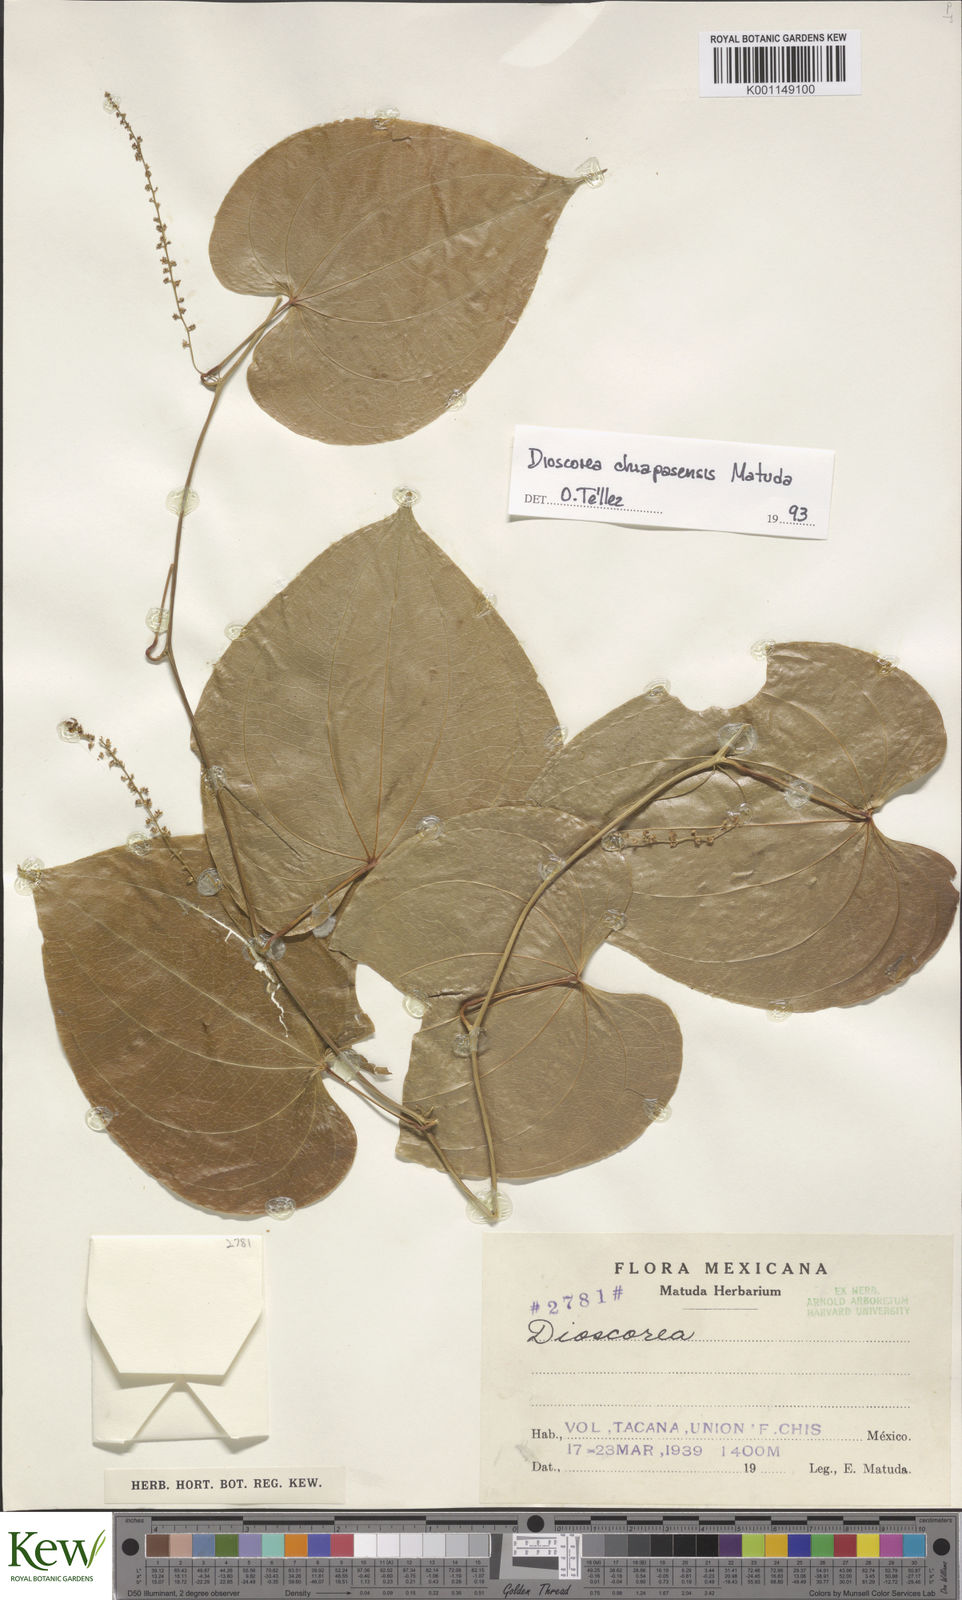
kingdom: Plantae
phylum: Tracheophyta
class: Liliopsida
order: Dioscoreales
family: Dioscoreaceae
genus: Dioscorea
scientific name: Dioscorea
